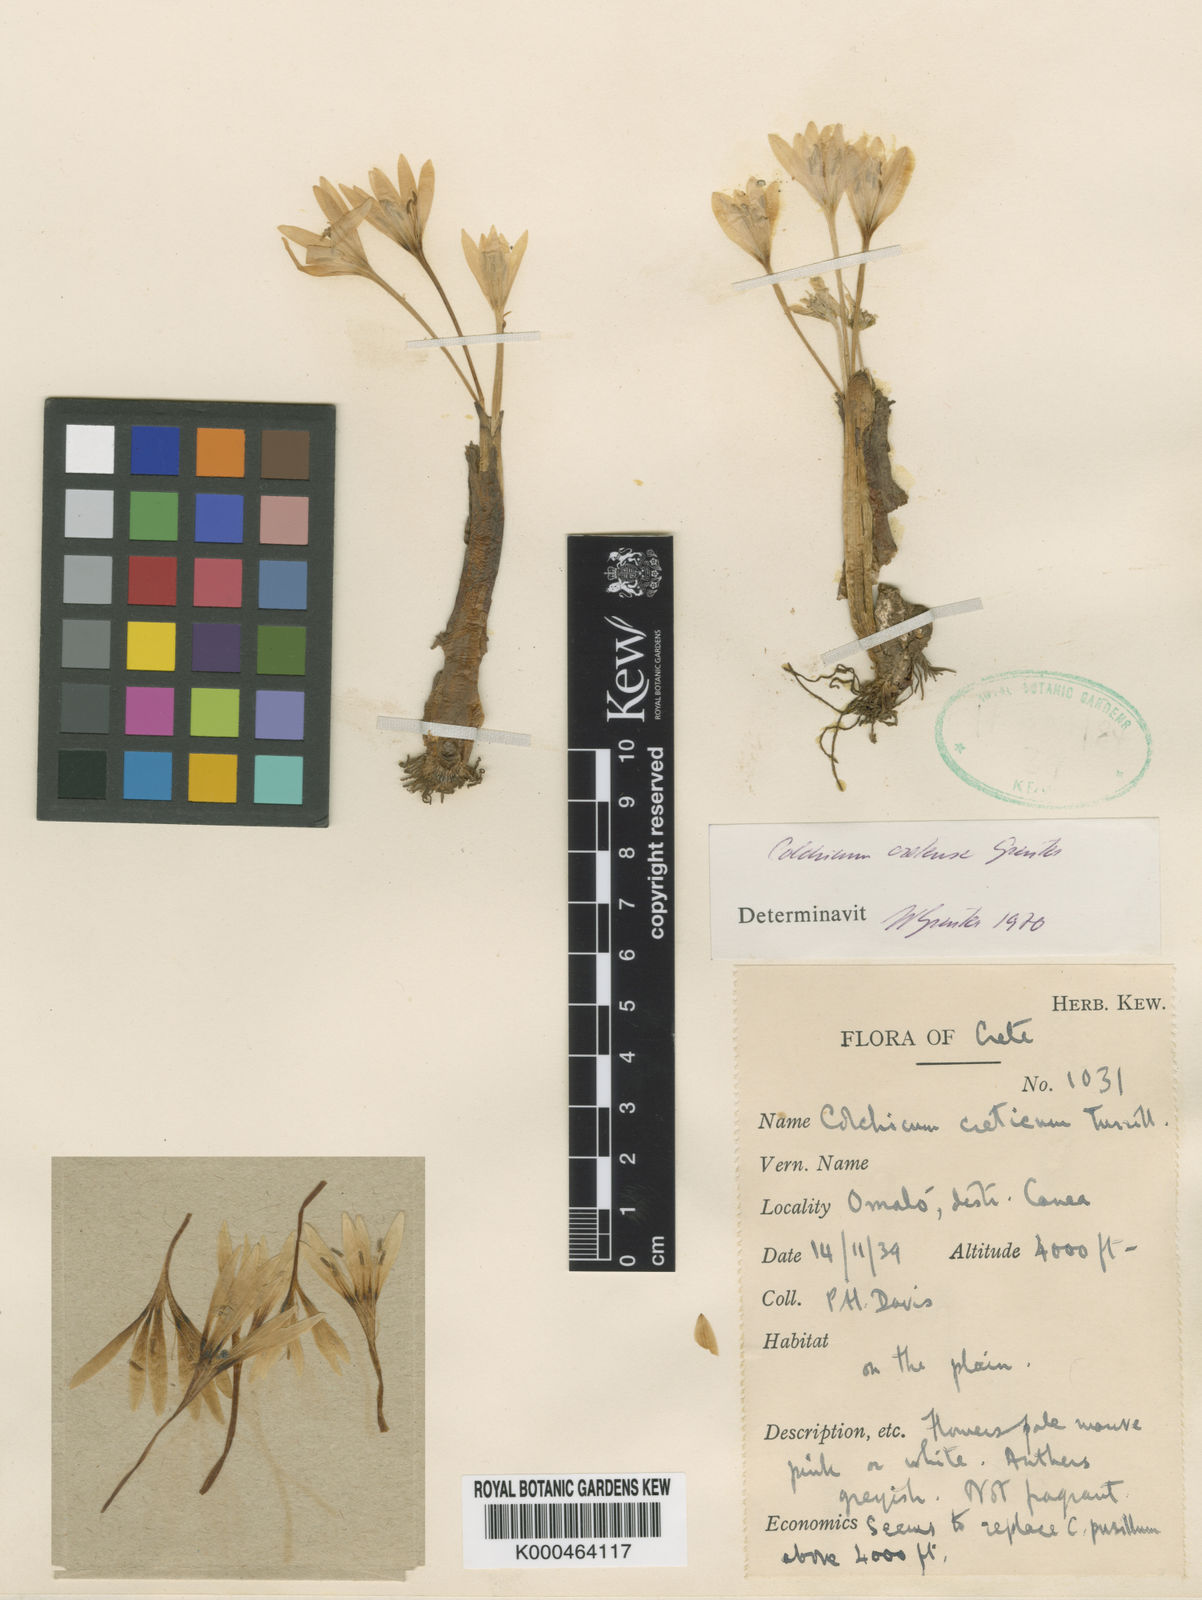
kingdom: Plantae
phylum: Tracheophyta
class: Liliopsida
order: Liliales
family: Colchicaceae
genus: Colchicum
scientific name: Colchicum cupanii
